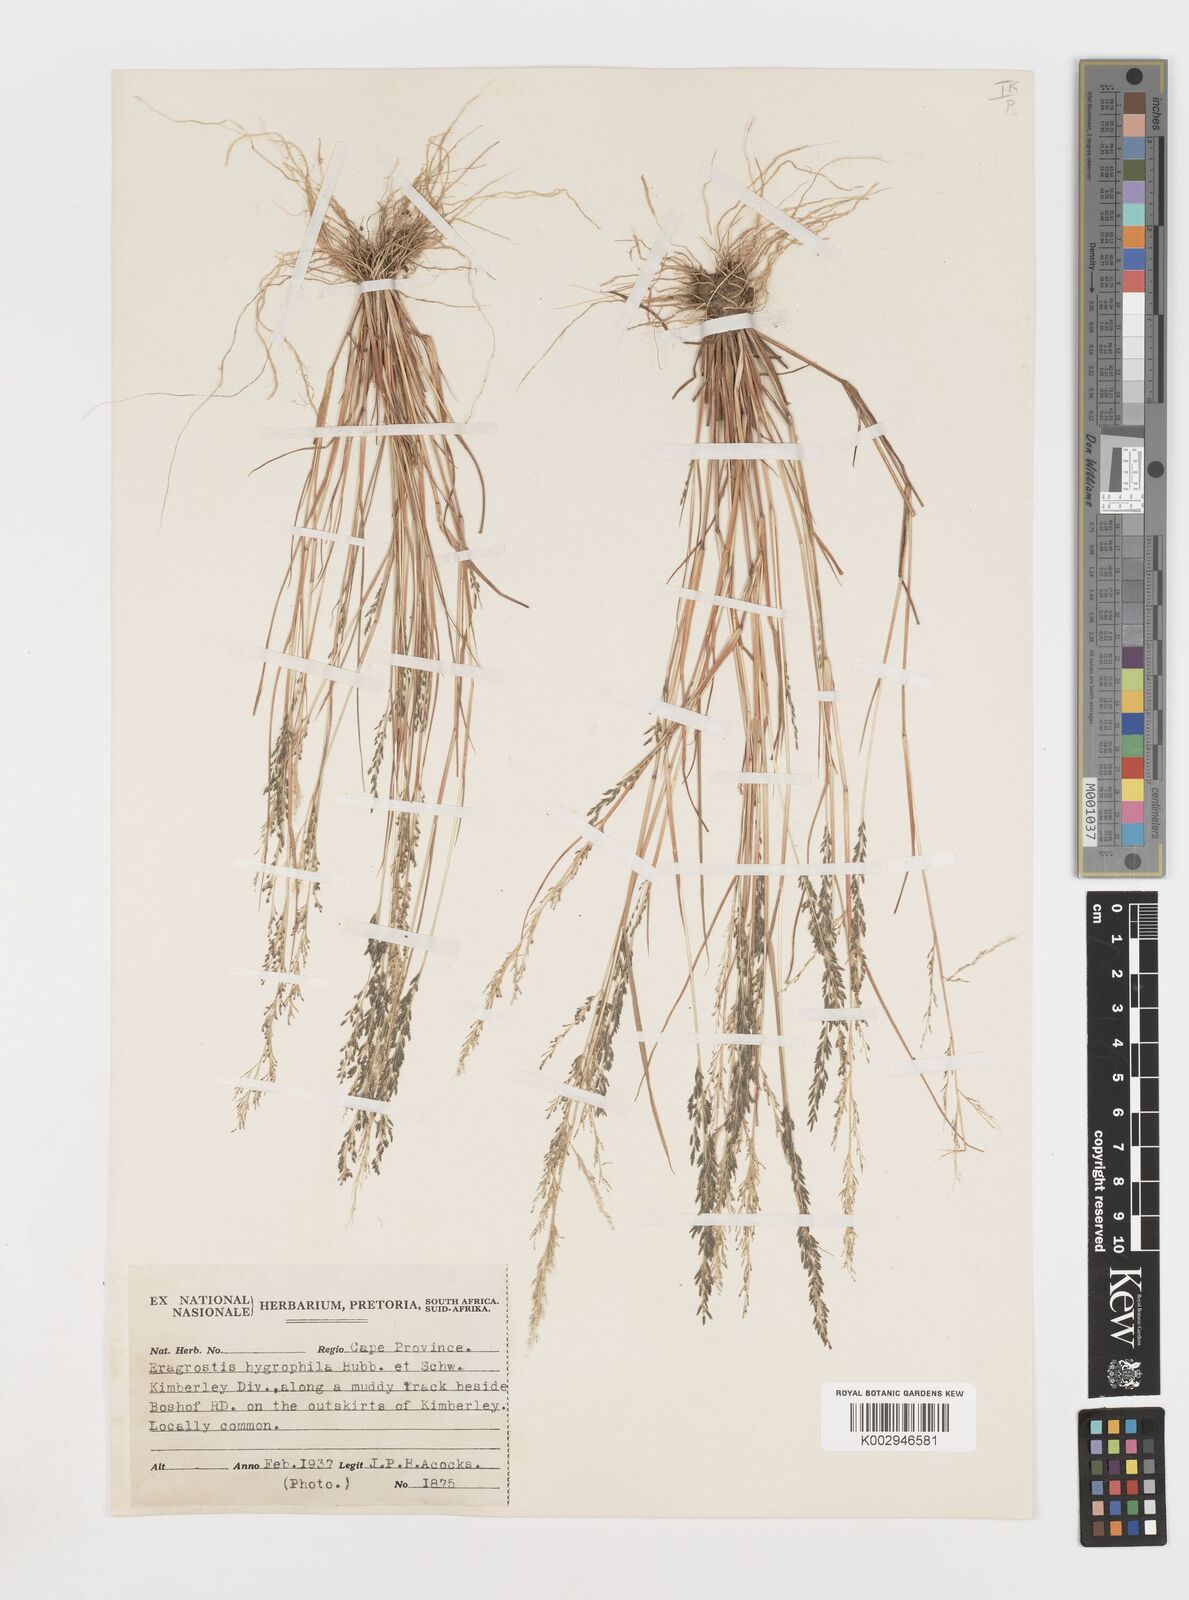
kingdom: Plantae
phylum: Tracheophyta
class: Liliopsida
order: Poales
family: Poaceae
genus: Eragrostis
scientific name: Eragrostis homomalla
